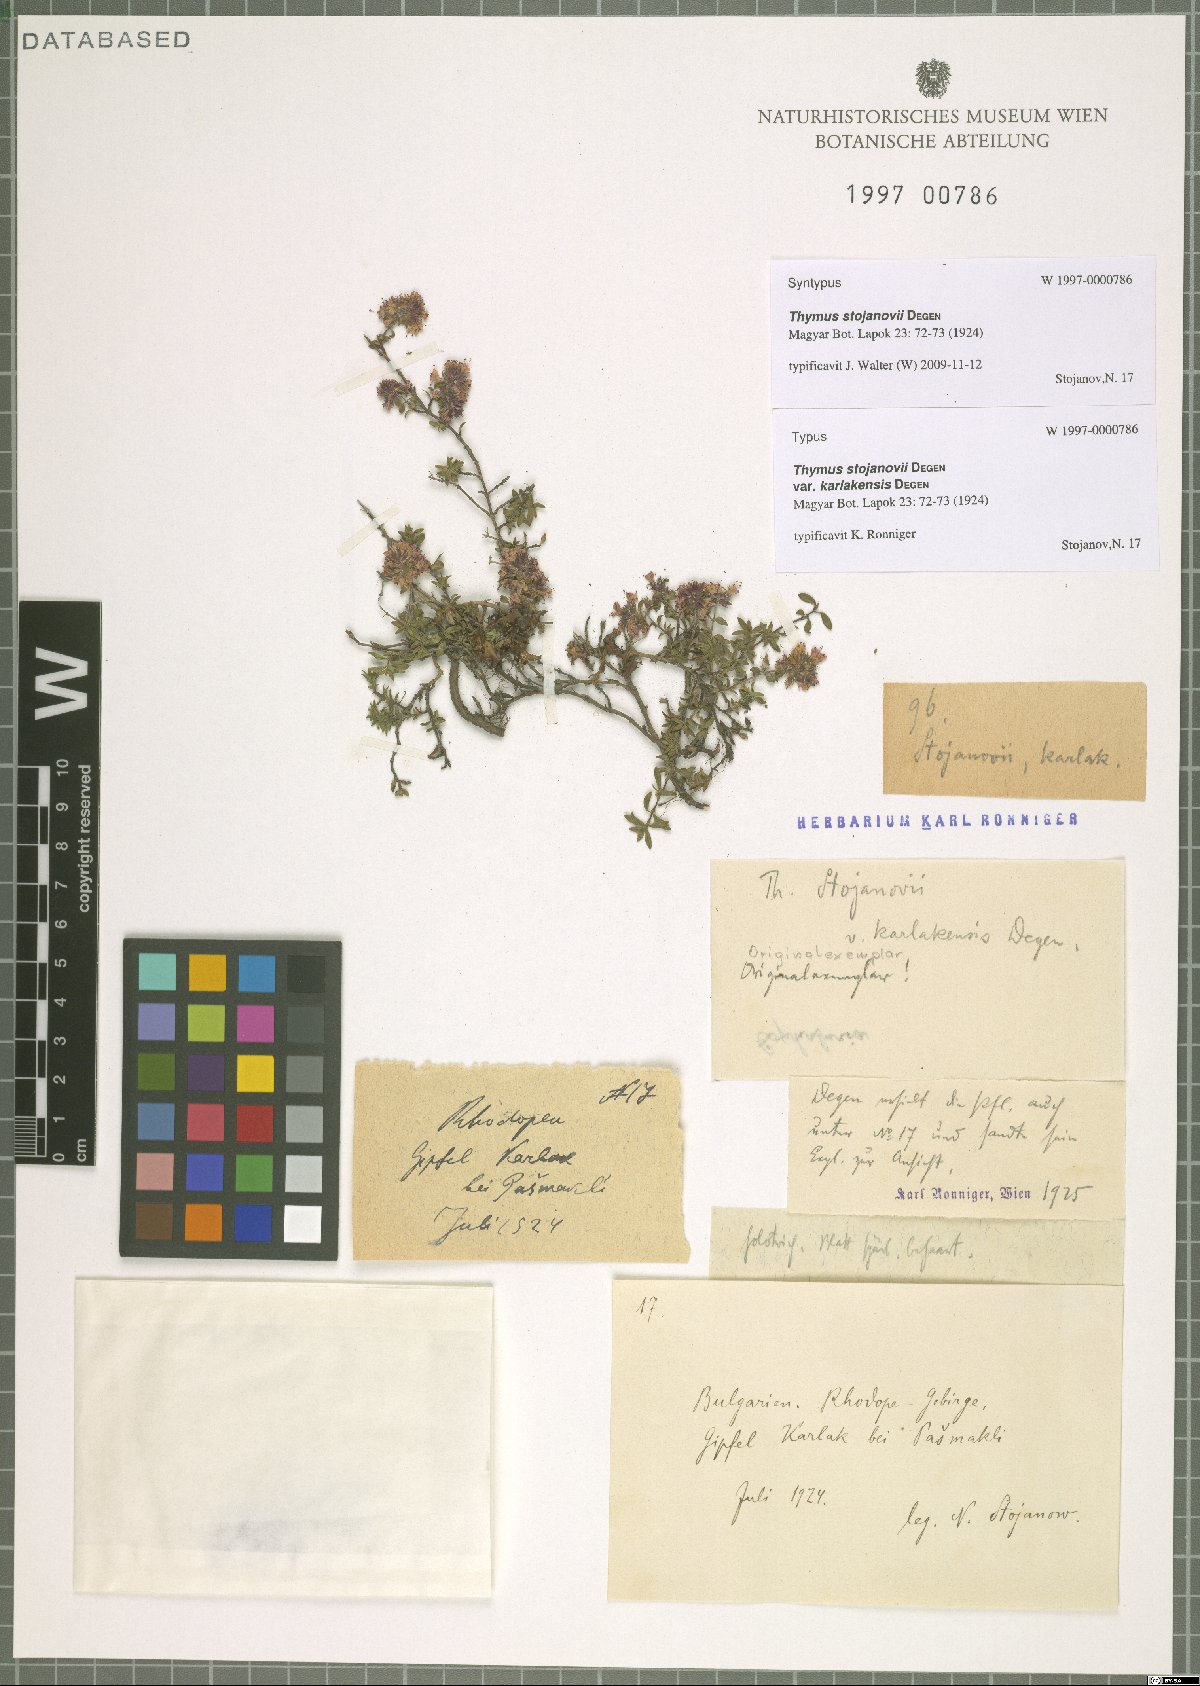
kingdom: Plantae
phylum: Tracheophyta
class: Magnoliopsida
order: Lamiales
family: Lamiaceae
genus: Thymus
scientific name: Thymus stojanovii
